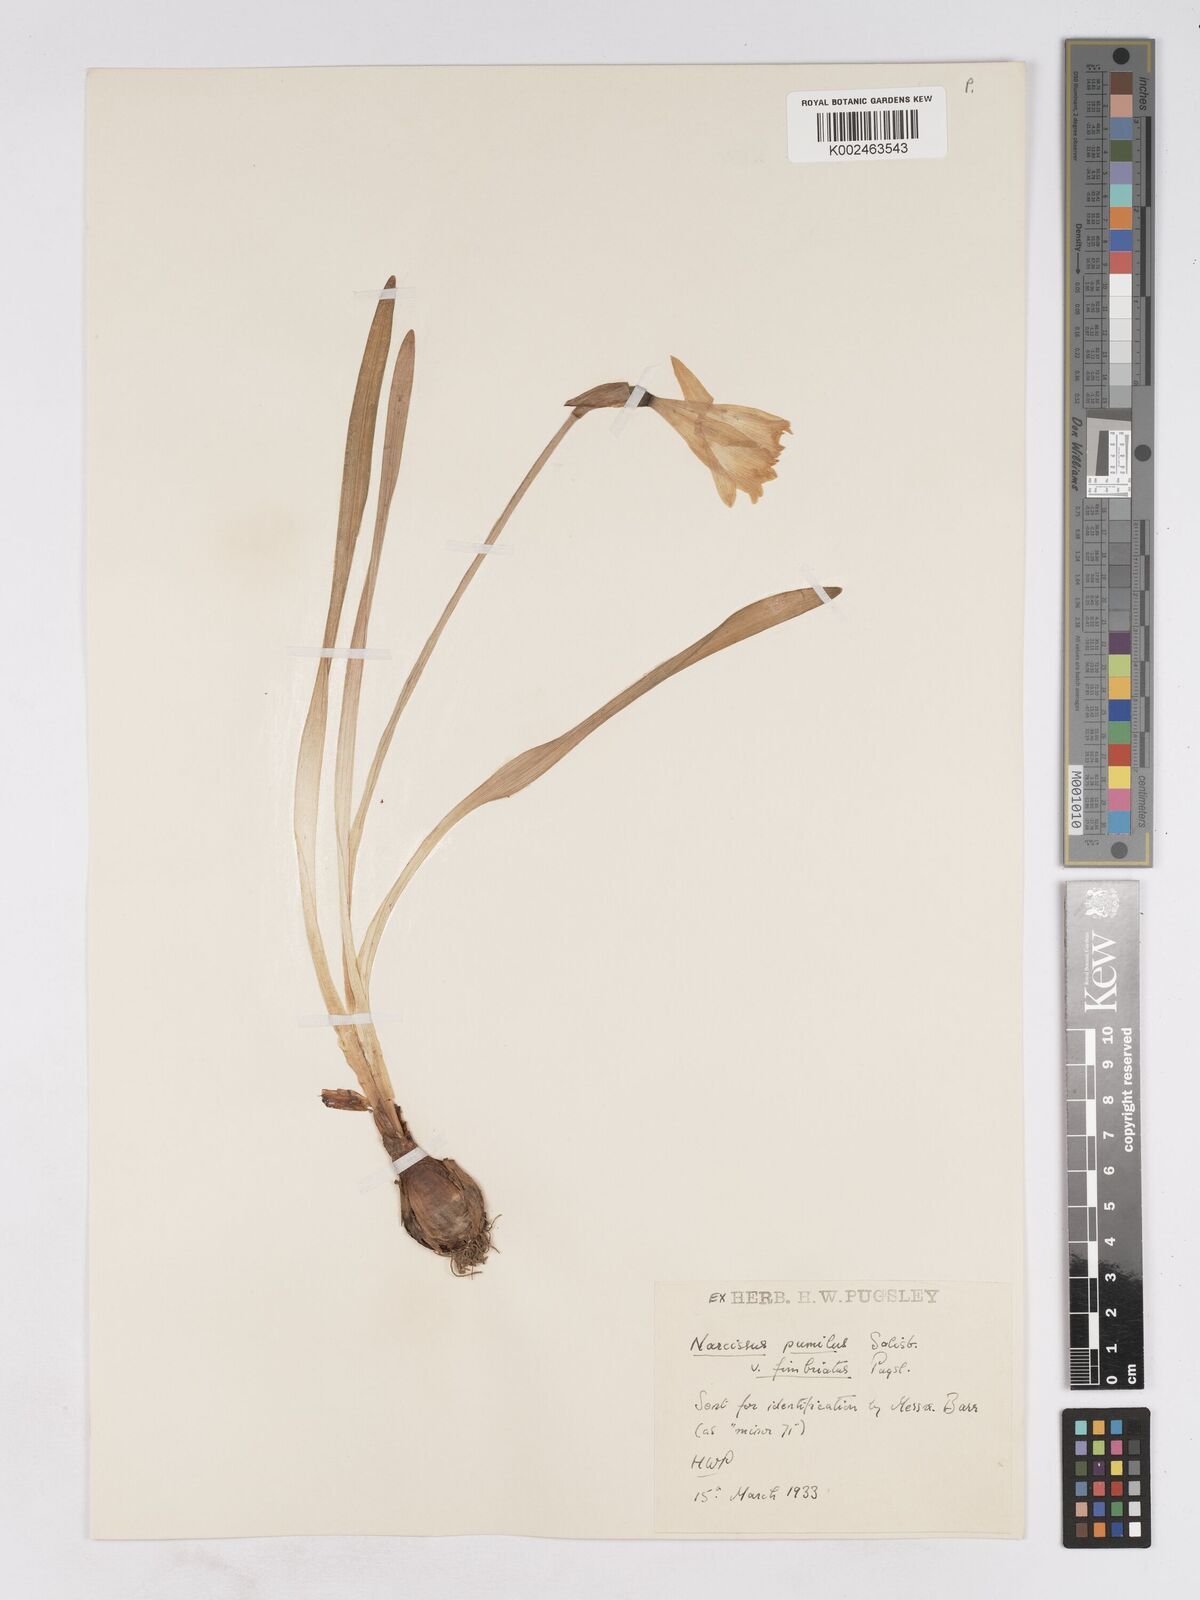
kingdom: Plantae
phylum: Tracheophyta
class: Liliopsida
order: Asparagales
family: Amaryllidaceae
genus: Narcissus
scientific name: Narcissus minor
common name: Lesser daffodil
